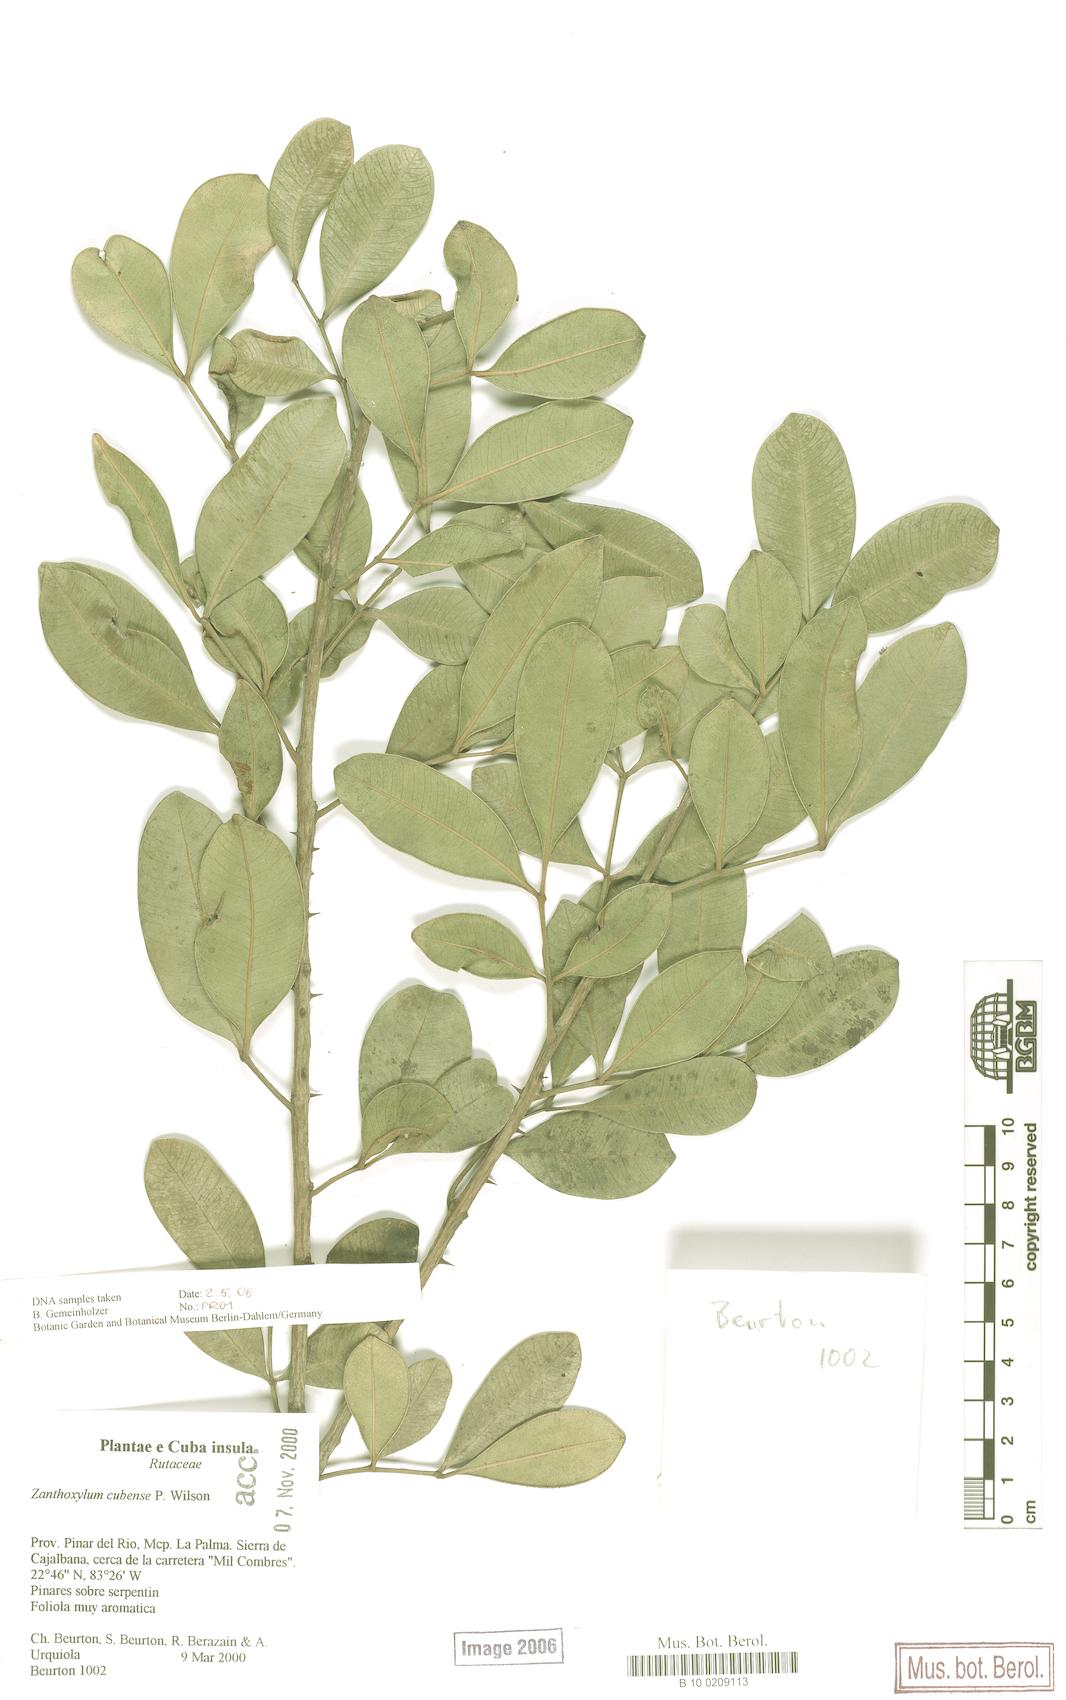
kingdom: Plantae
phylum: Tracheophyta
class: Magnoliopsida
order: Sapindales
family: Rutaceae
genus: Zanthoxylum
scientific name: Zanthoxylum rhodoxylon
